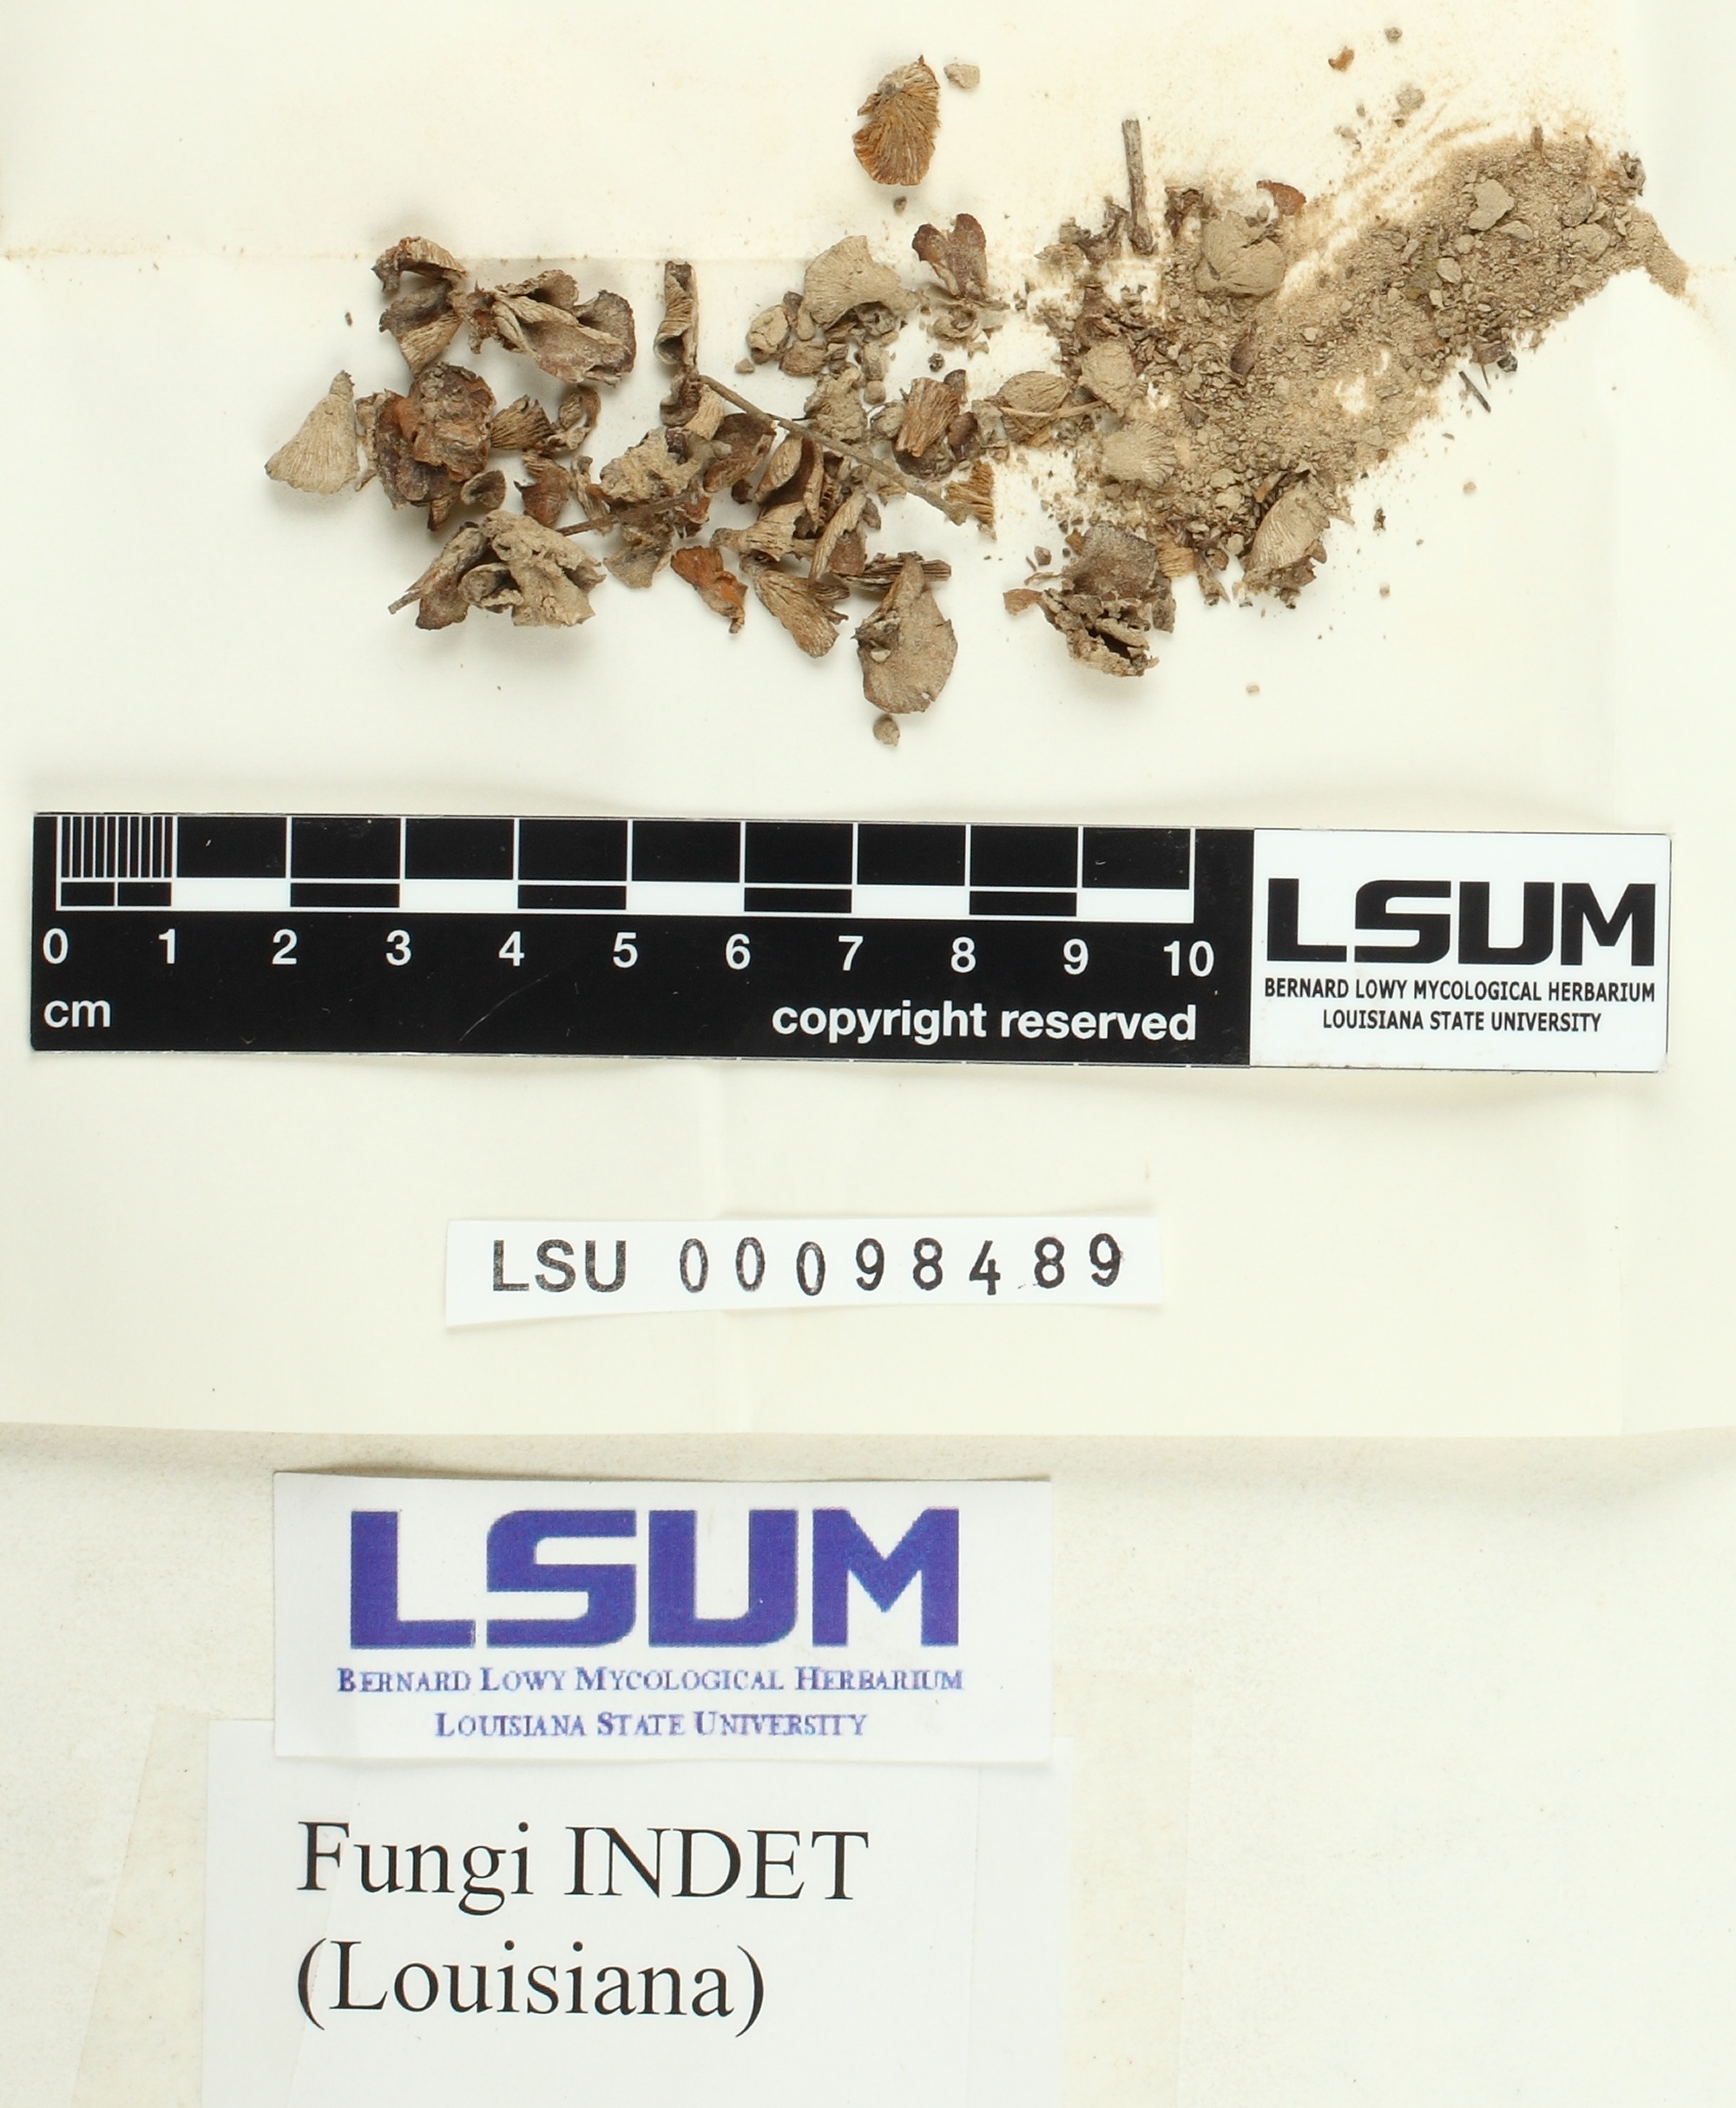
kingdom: Fungi
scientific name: Fungi
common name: Fungi
